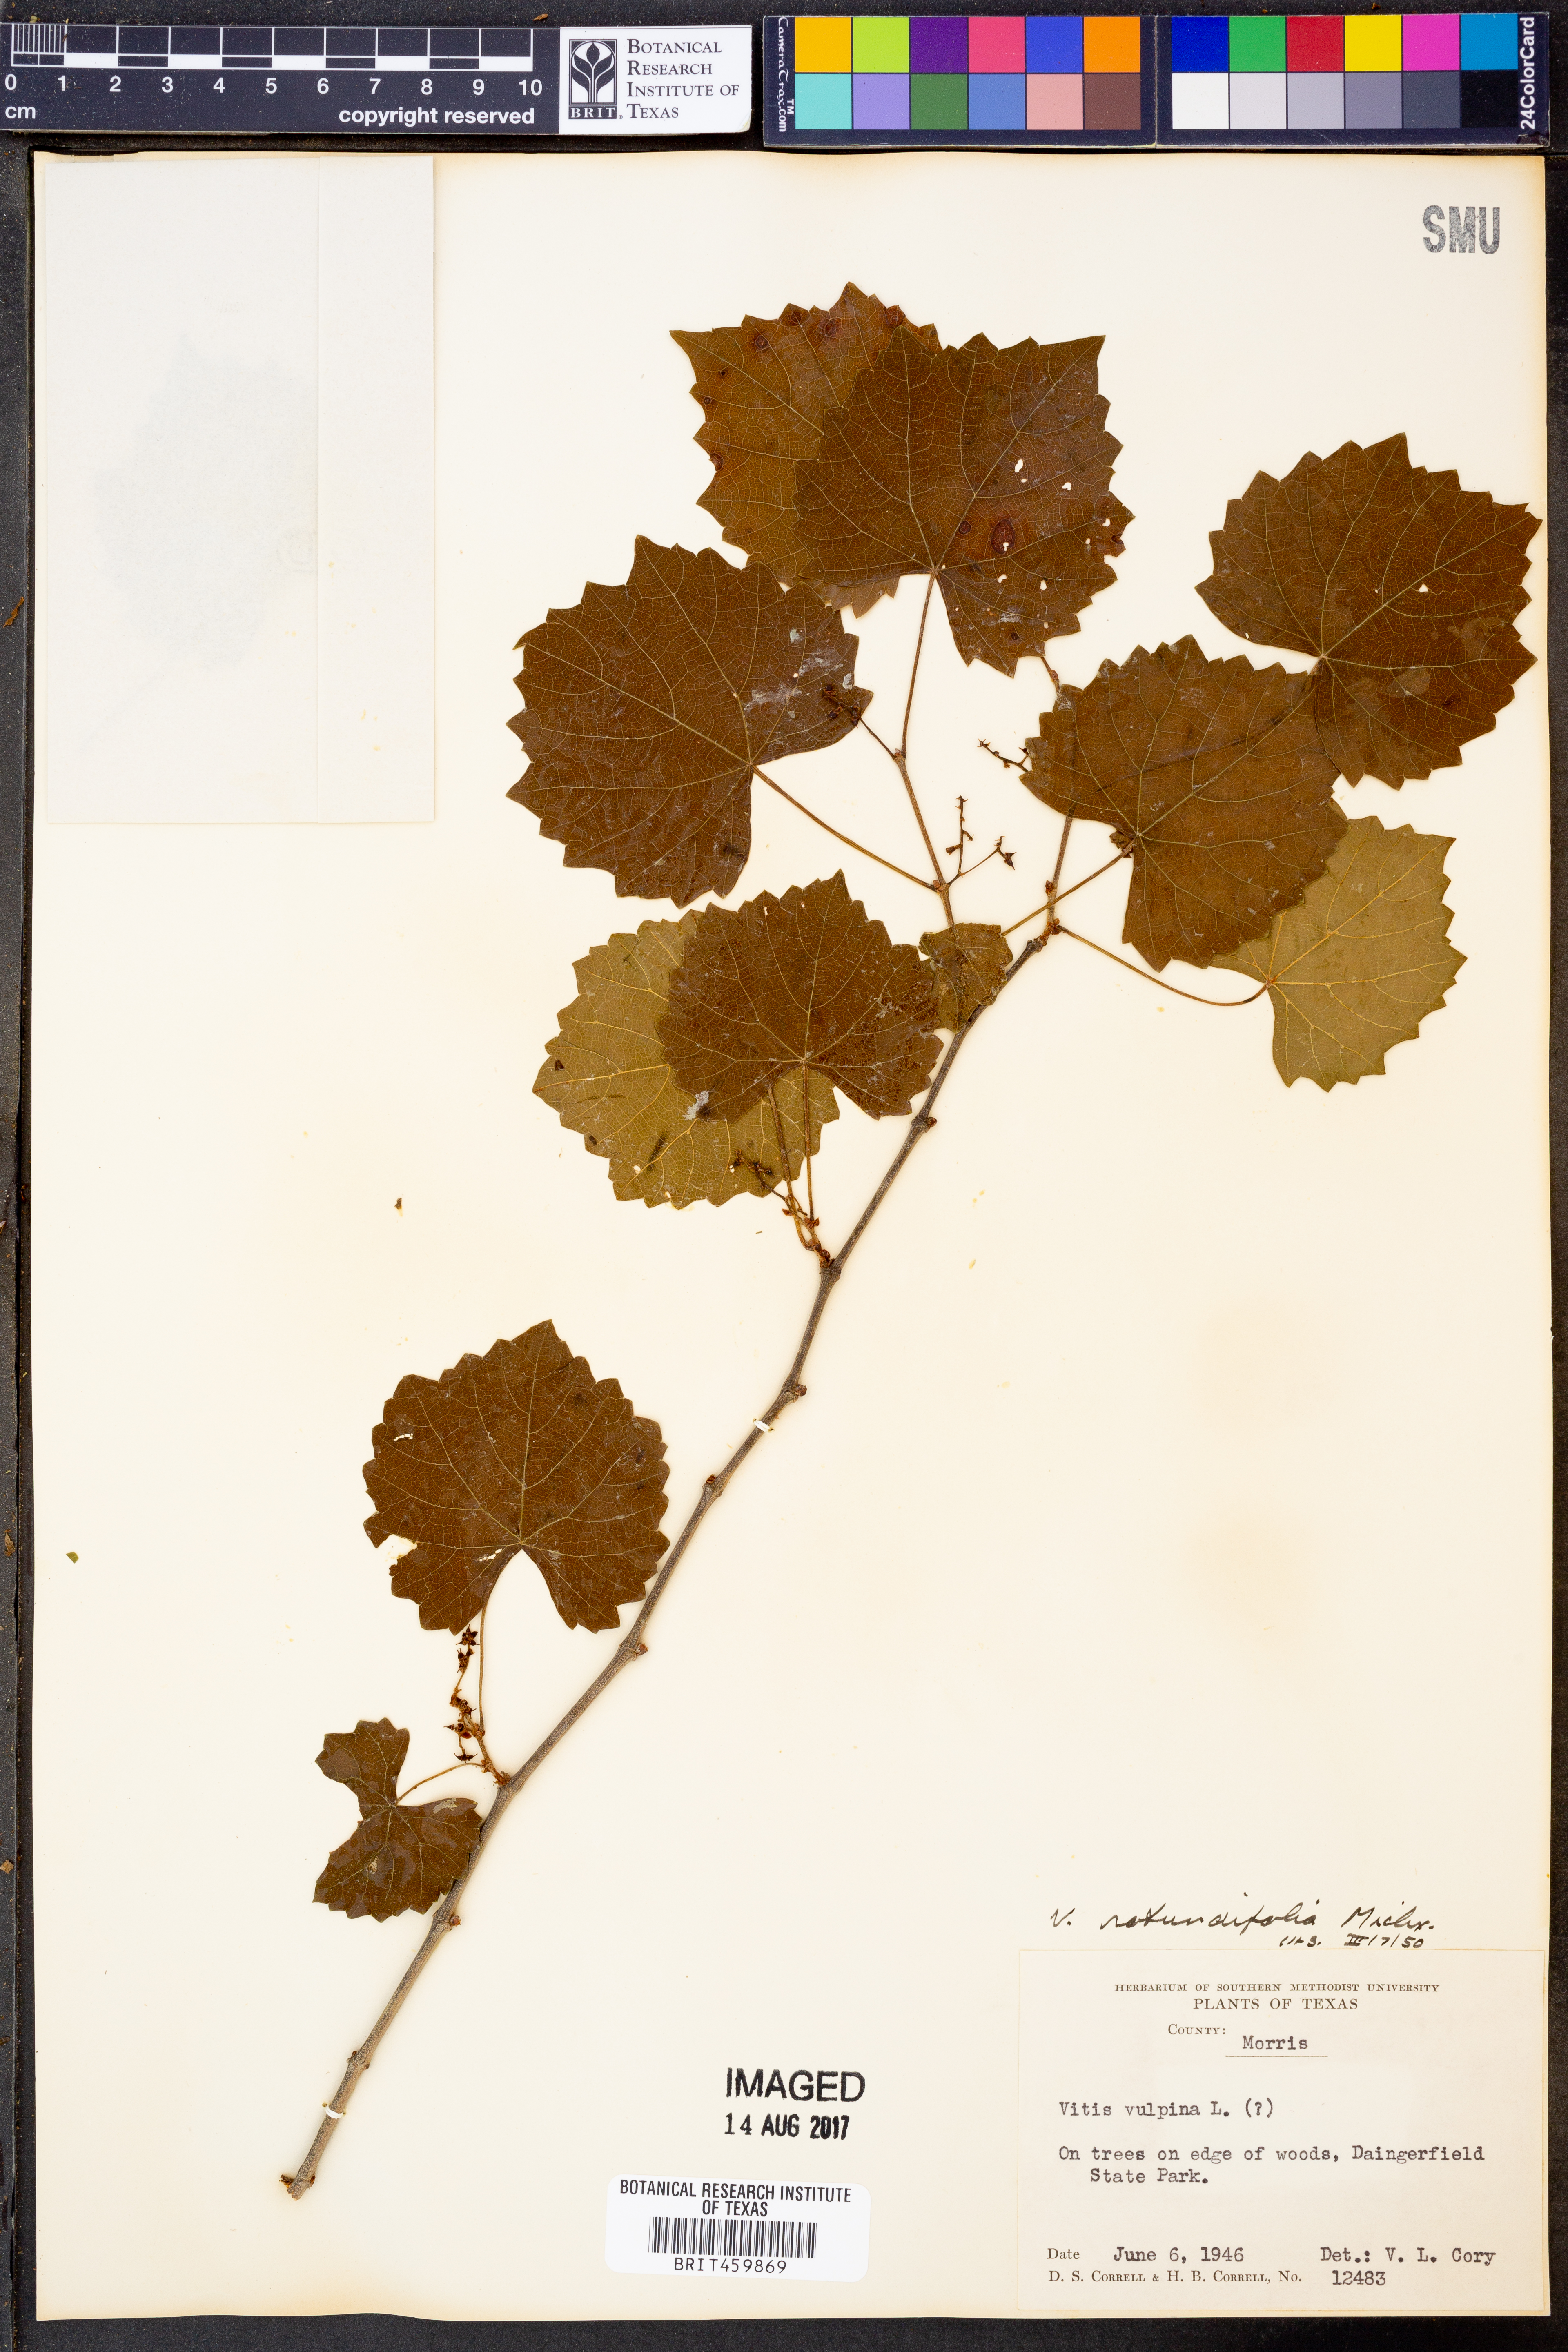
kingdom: Plantae
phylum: Tracheophyta
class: Magnoliopsida
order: Vitales
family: Vitaceae
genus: Vitis
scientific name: Vitis vulpina
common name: Frost grape
